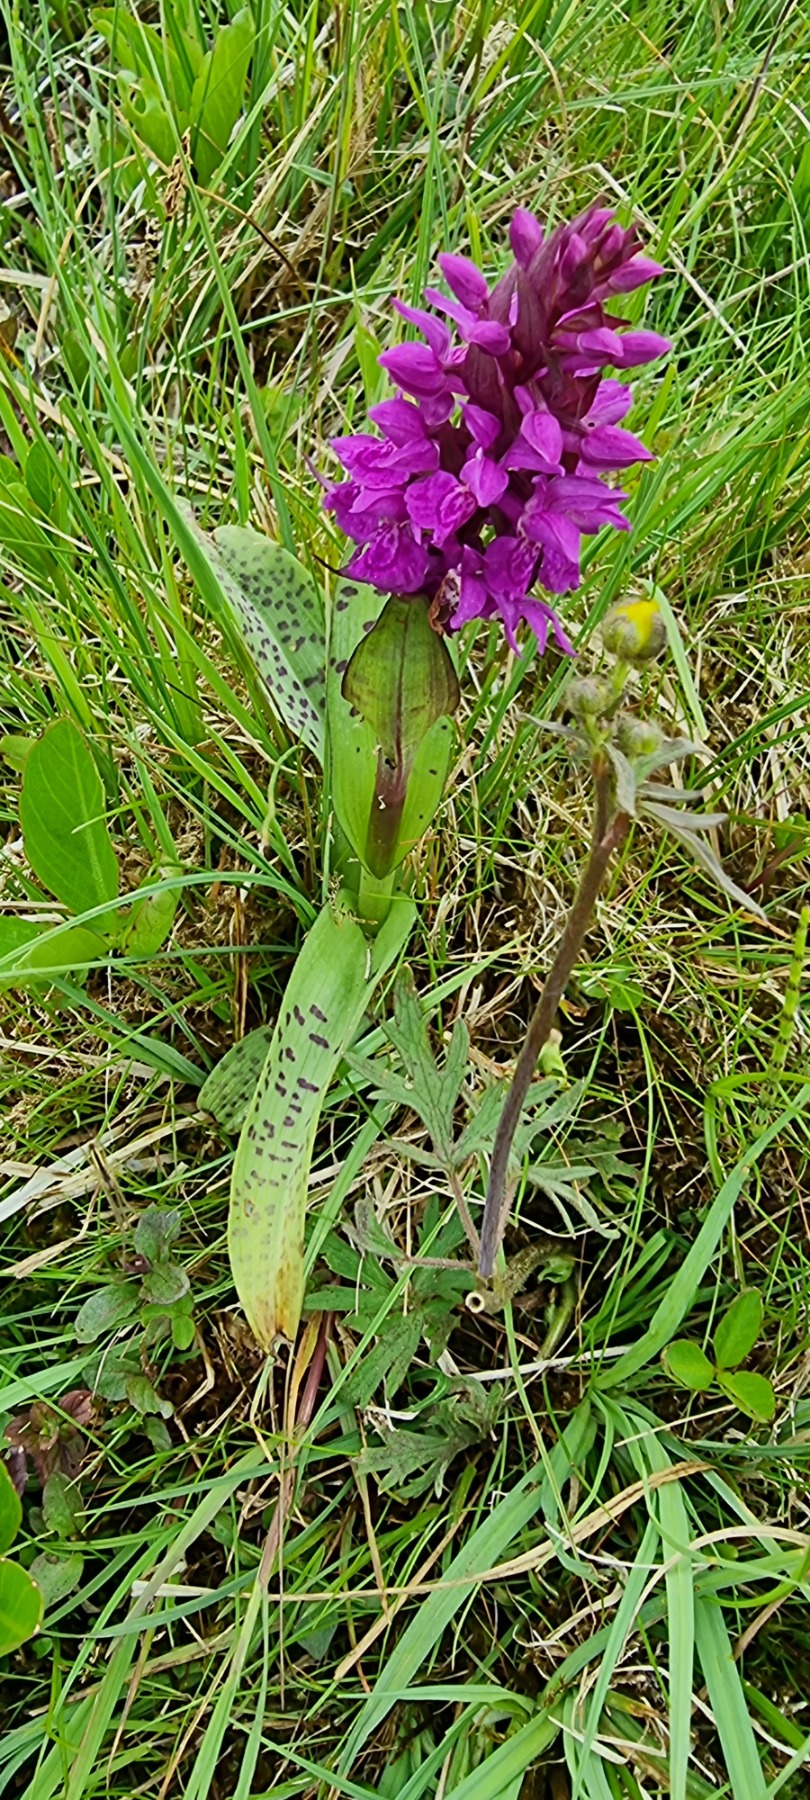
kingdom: Plantae
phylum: Tracheophyta
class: Liliopsida
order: Asparagales
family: Orchidaceae
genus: Dactylorhiza
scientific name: Dactylorhiza majalis
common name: Maj-gøgeurt
